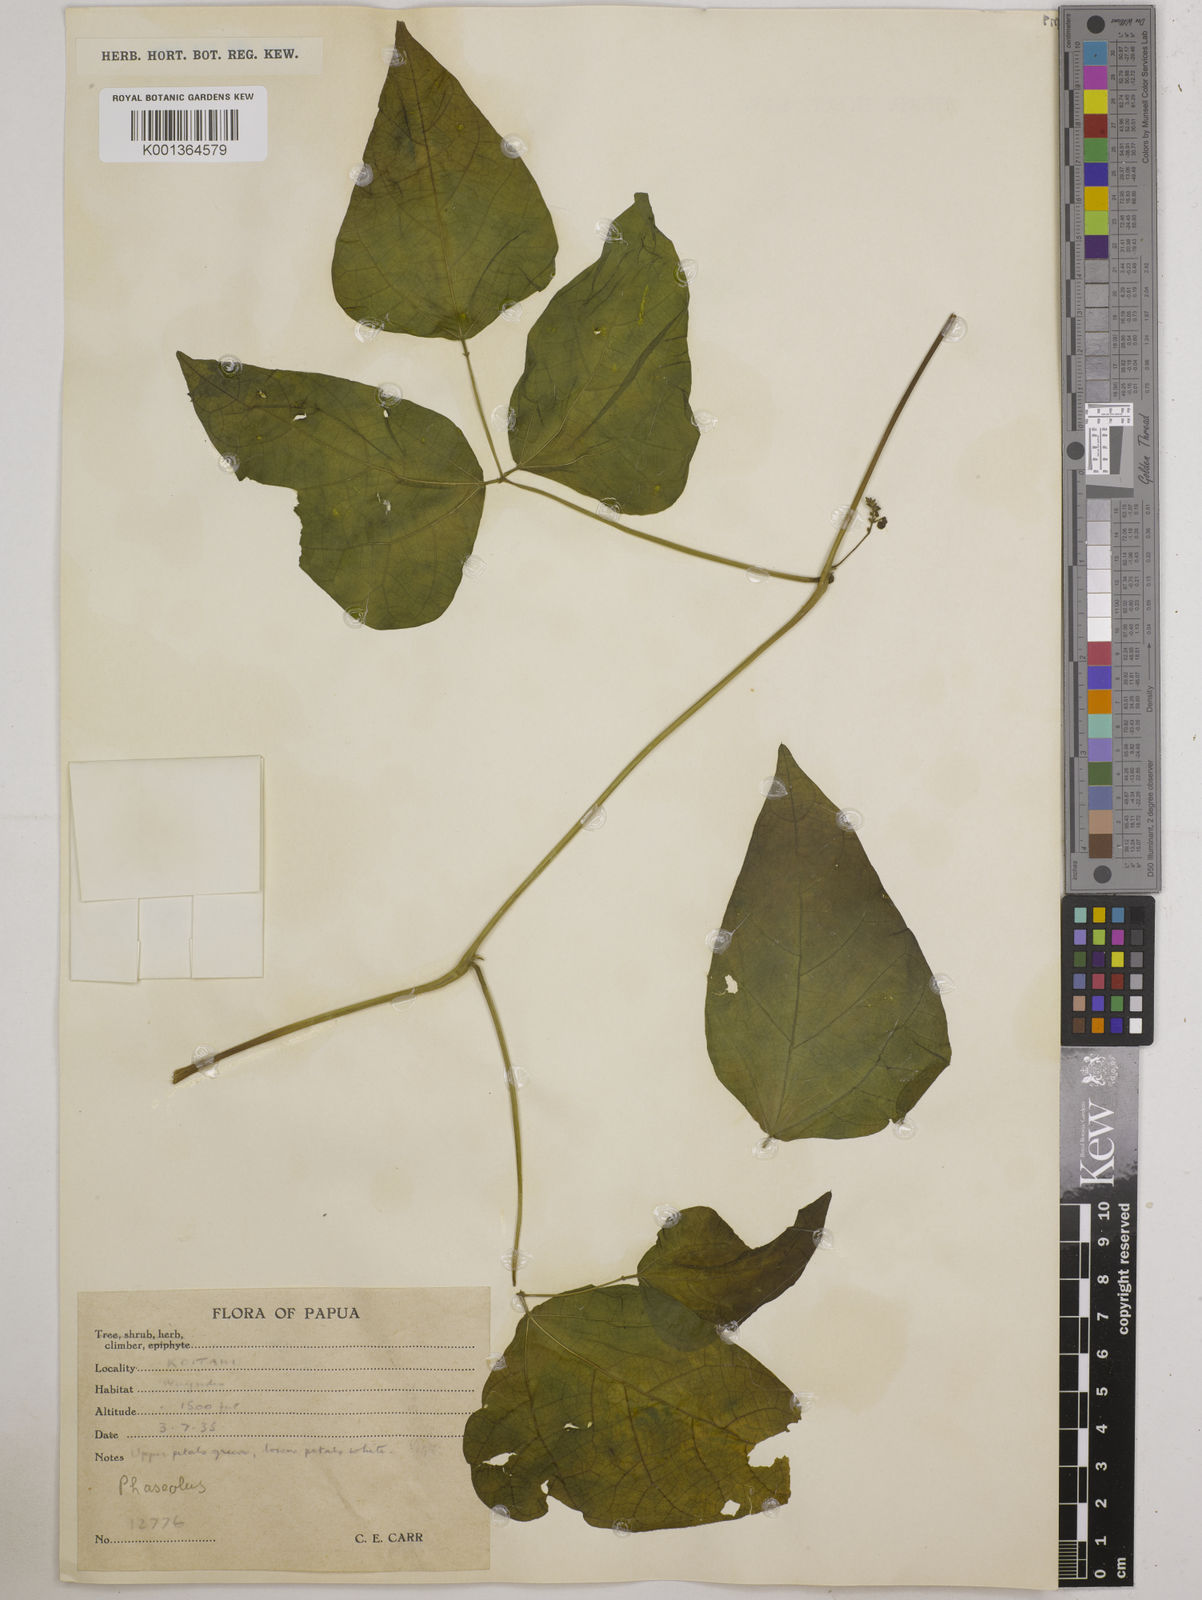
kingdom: Plantae
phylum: Tracheophyta
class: Magnoliopsida
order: Fabales
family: Fabaceae
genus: Phaseolus
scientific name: Phaseolus lunatus
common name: Sieva bean
